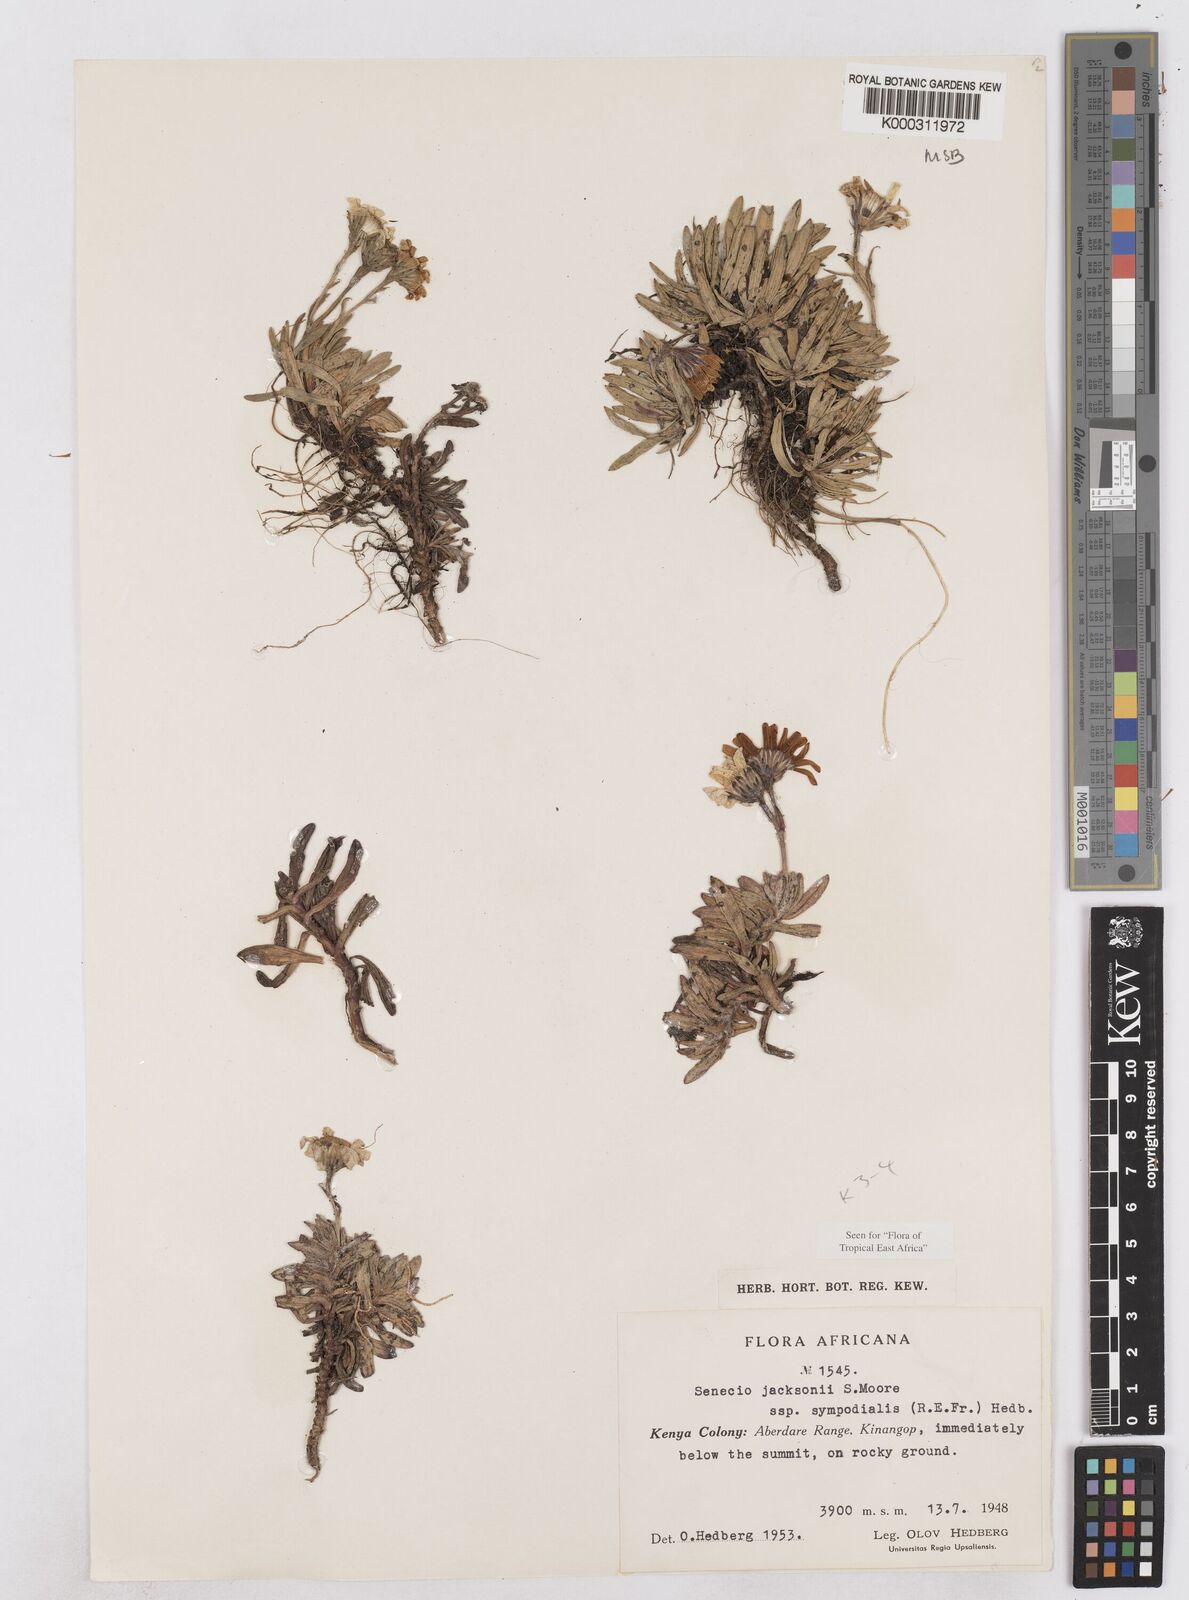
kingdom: Plantae
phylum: Tracheophyta
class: Magnoliopsida
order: Asterales
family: Asteraceae
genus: Senecio
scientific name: Senecio jacksonii
